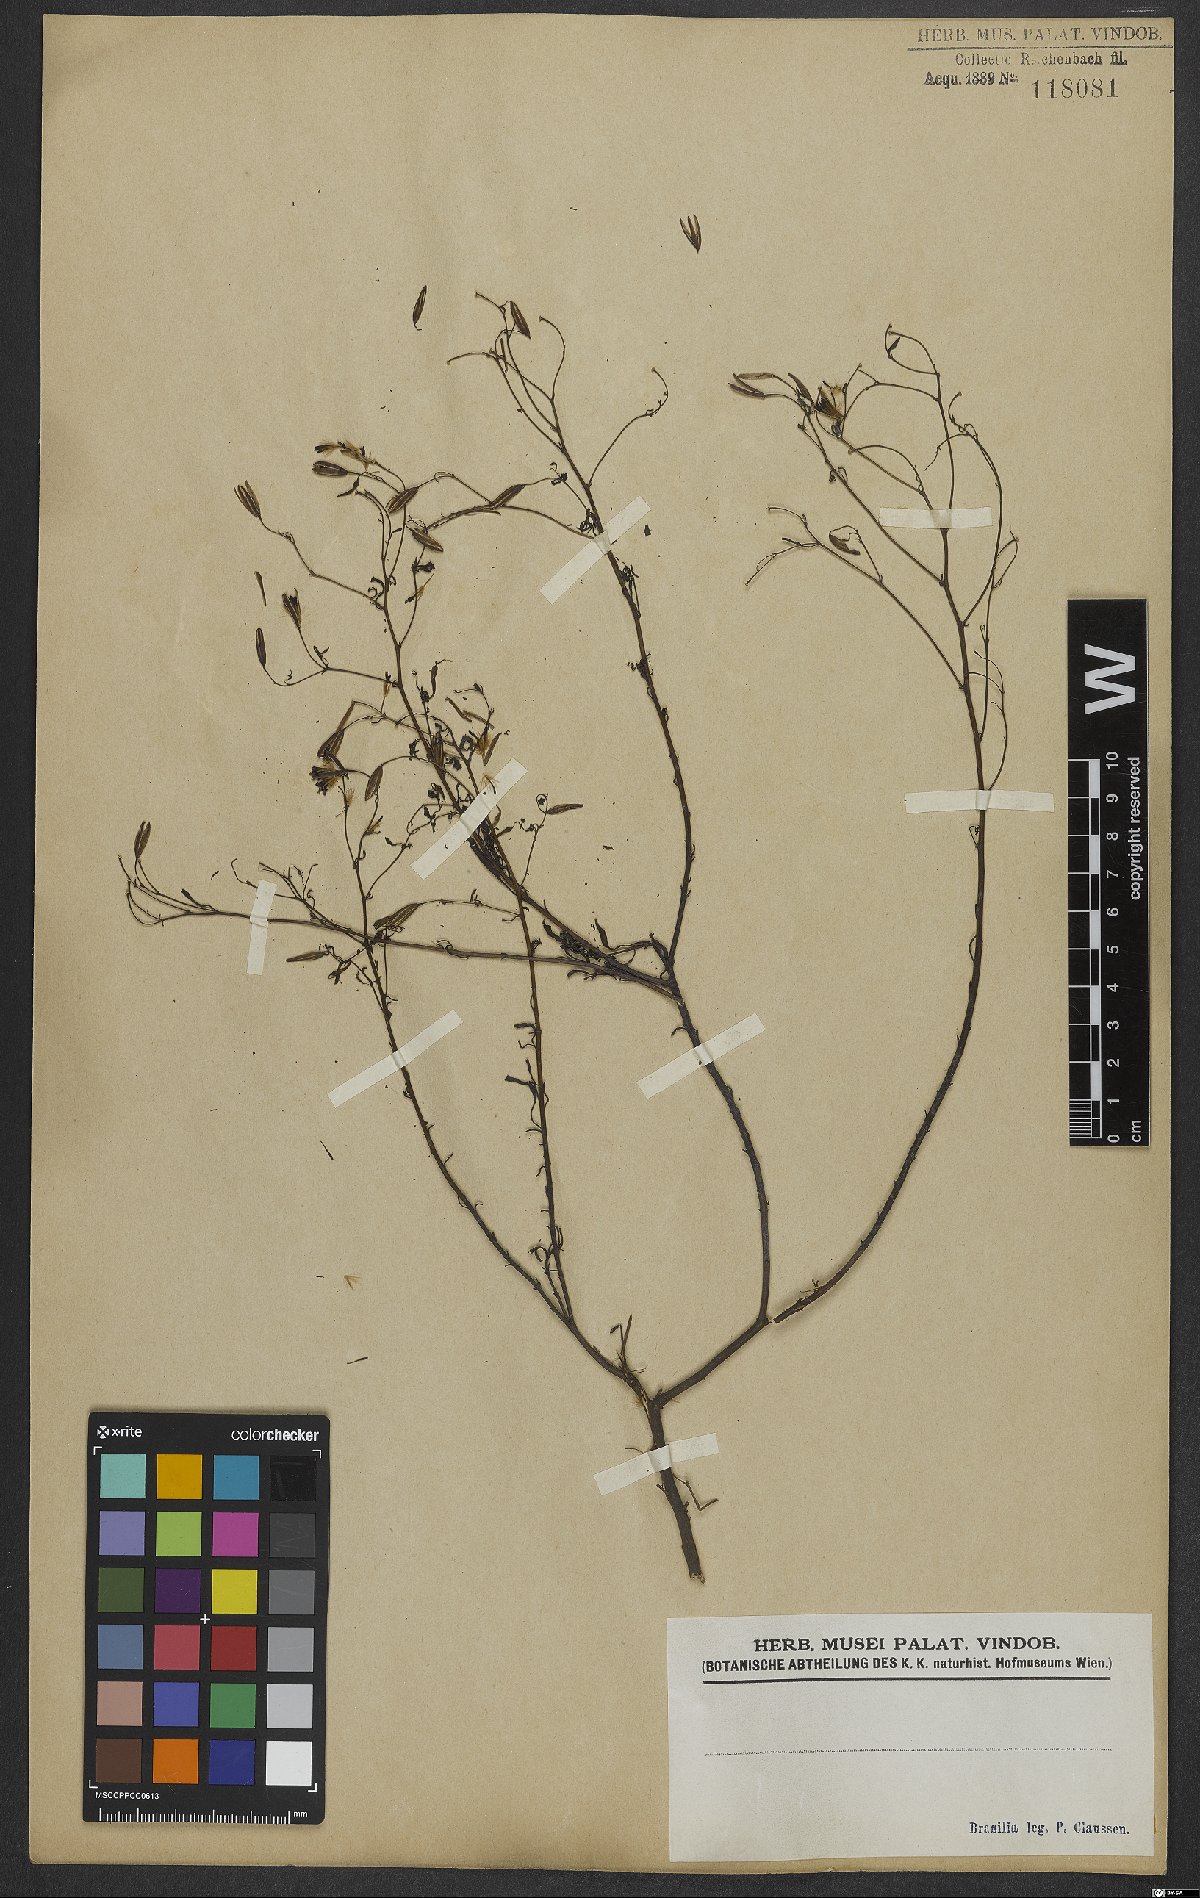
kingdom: Plantae
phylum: Tracheophyta
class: Magnoliopsida
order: Asterales
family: Asteraceae
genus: Porophyllum
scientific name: Porophyllum
